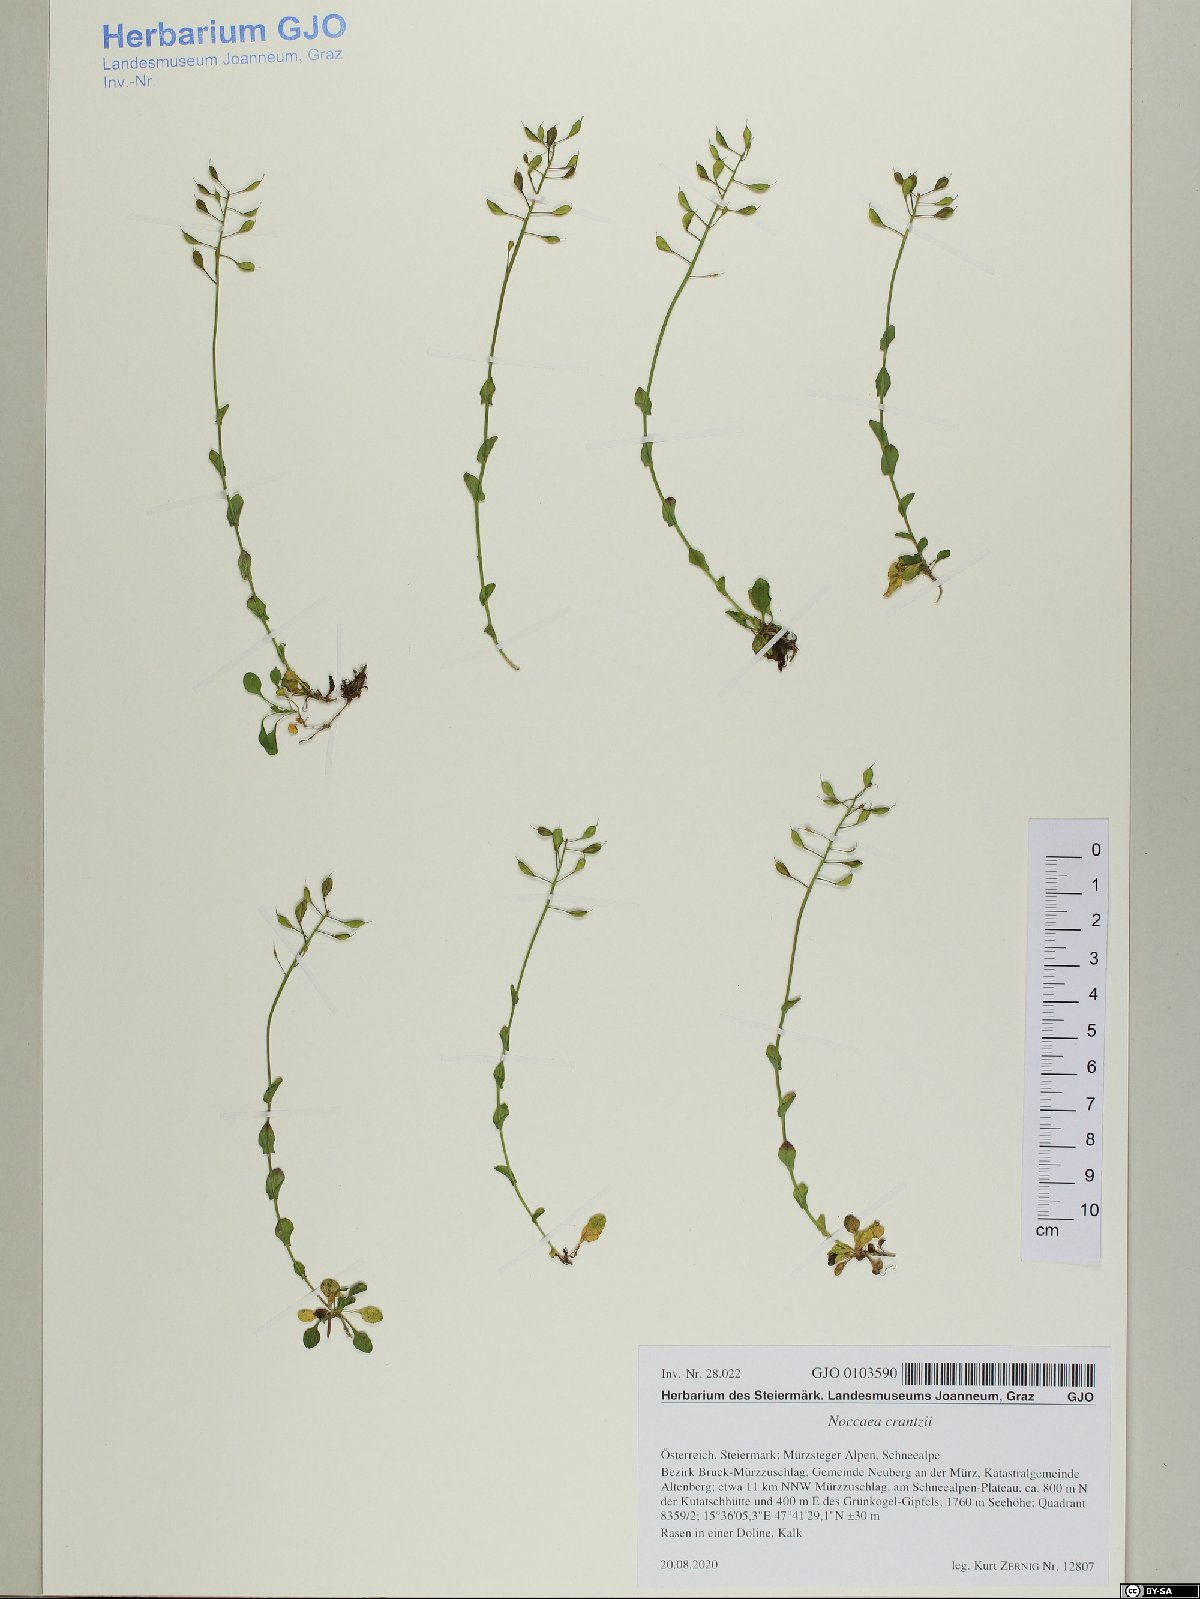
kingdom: Plantae
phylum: Tracheophyta
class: Magnoliopsida
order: Brassicales
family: Brassicaceae
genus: Noccaea
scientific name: Noccaea alpestris
